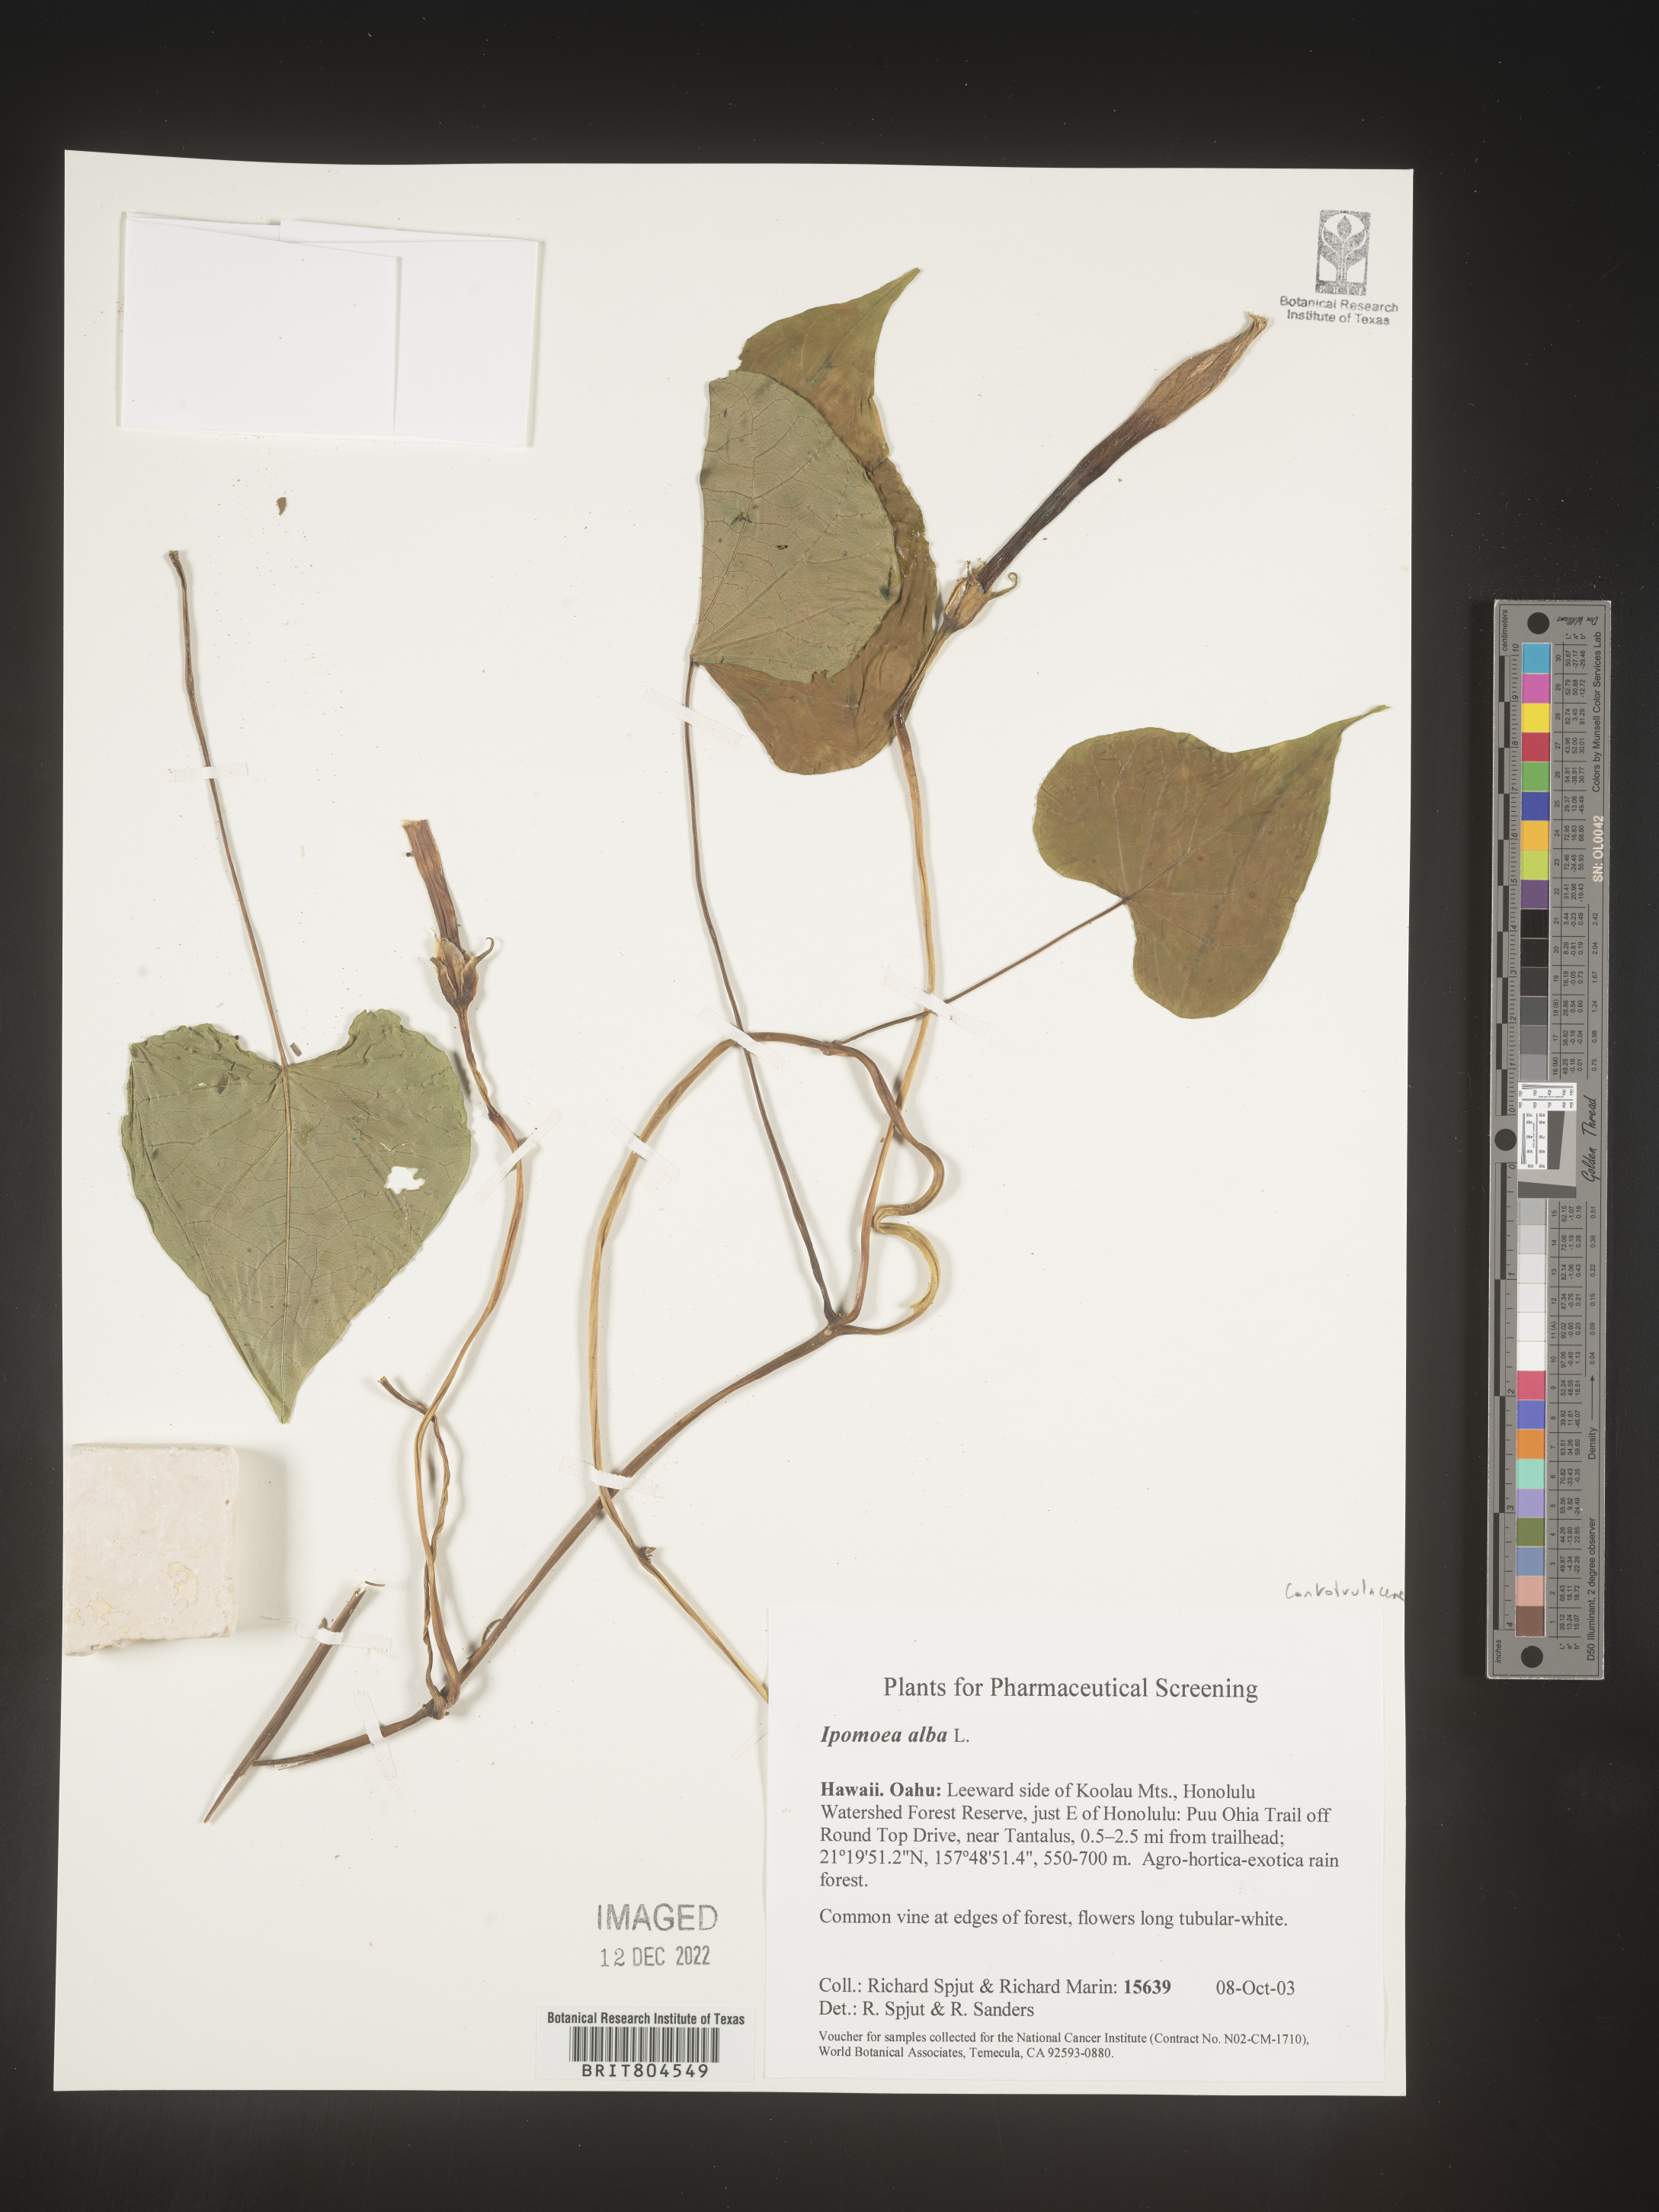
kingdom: Plantae
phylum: Tracheophyta
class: Magnoliopsida
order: Solanales
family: Convolvulaceae
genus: Ipomoea
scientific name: Ipomoea alba
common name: Moonflower
